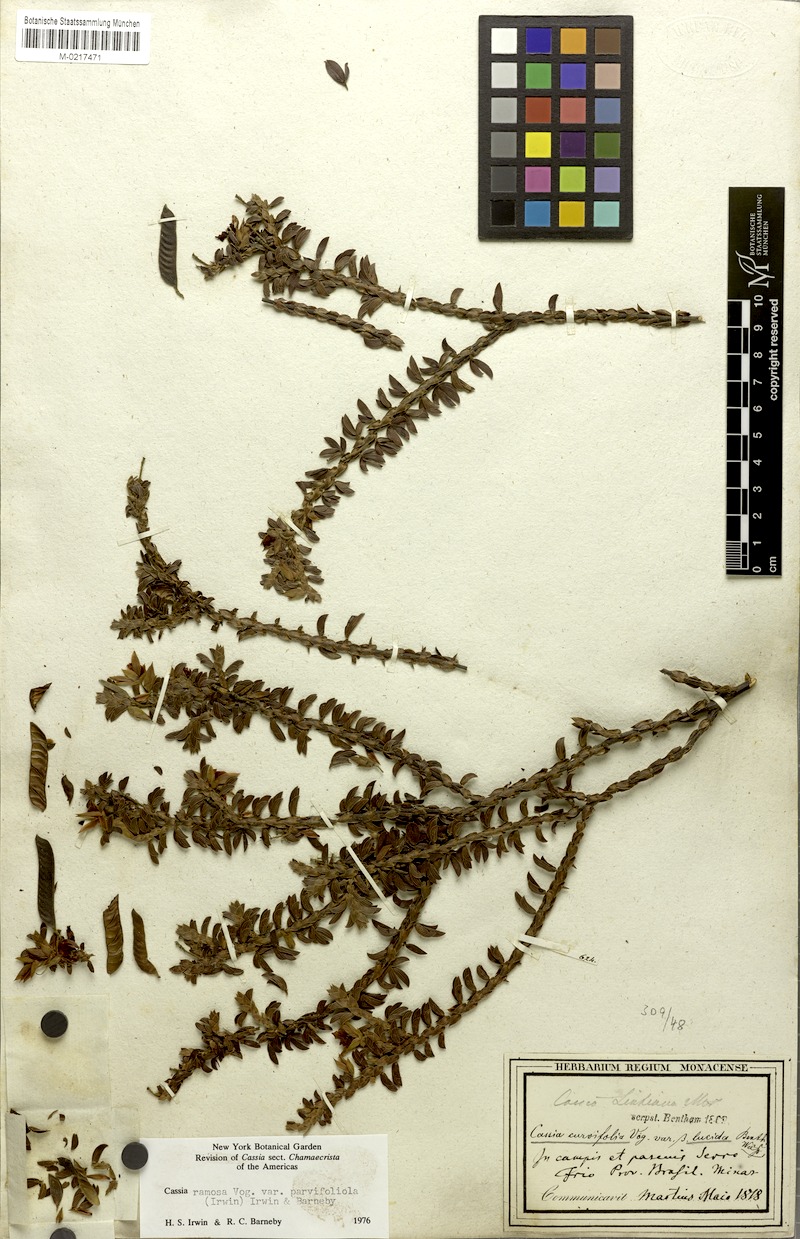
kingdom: Plantae
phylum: Tracheophyta
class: Magnoliopsida
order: Fabales
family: Fabaceae
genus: Chamaecrista
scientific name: Chamaecrista ramosa
